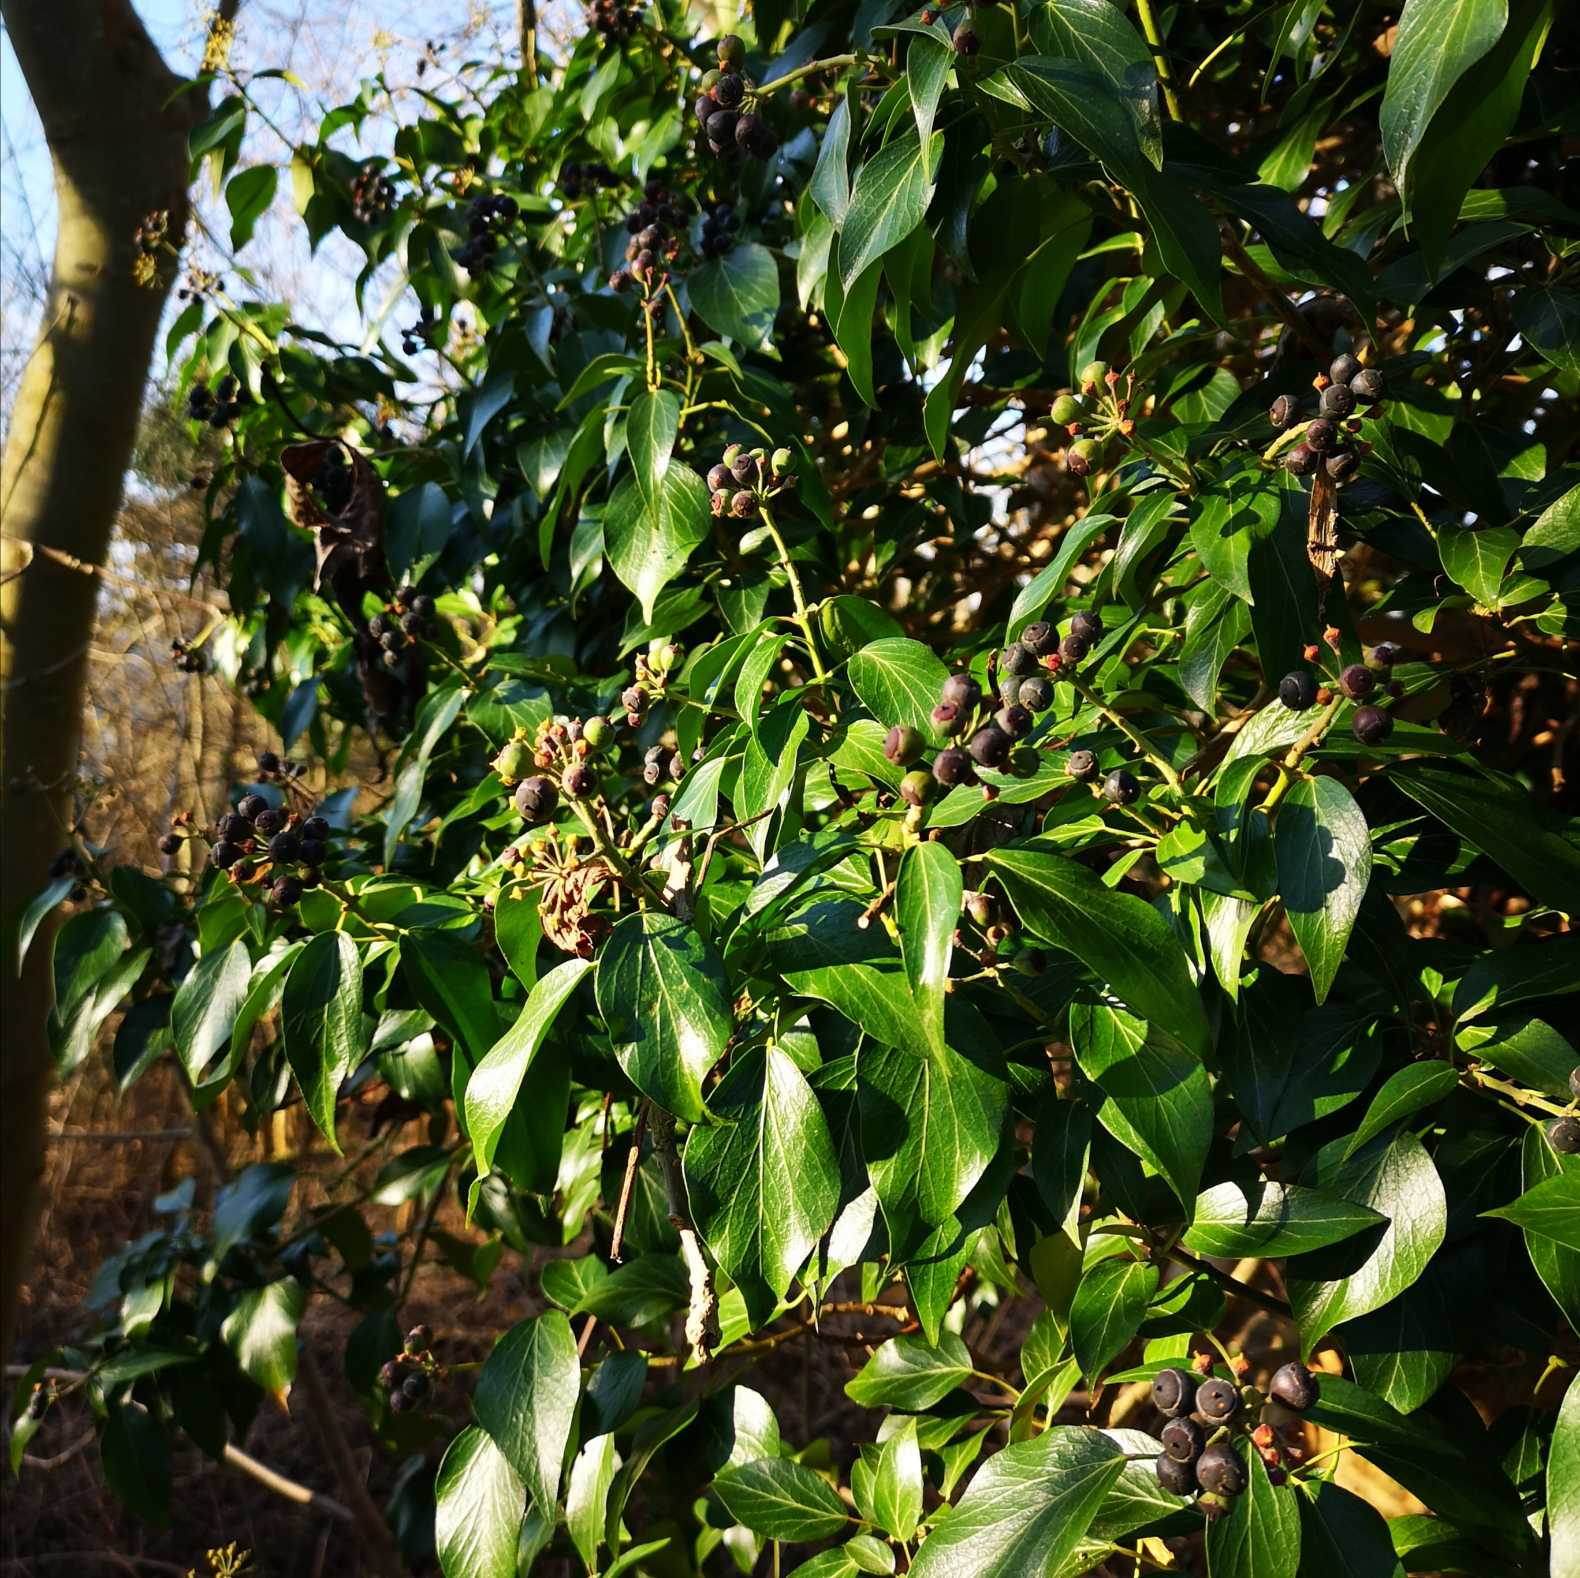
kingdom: Plantae
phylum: Tracheophyta
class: Magnoliopsida
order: Apiales
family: Araliaceae
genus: Hedera
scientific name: Hedera helix
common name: Vedbend
